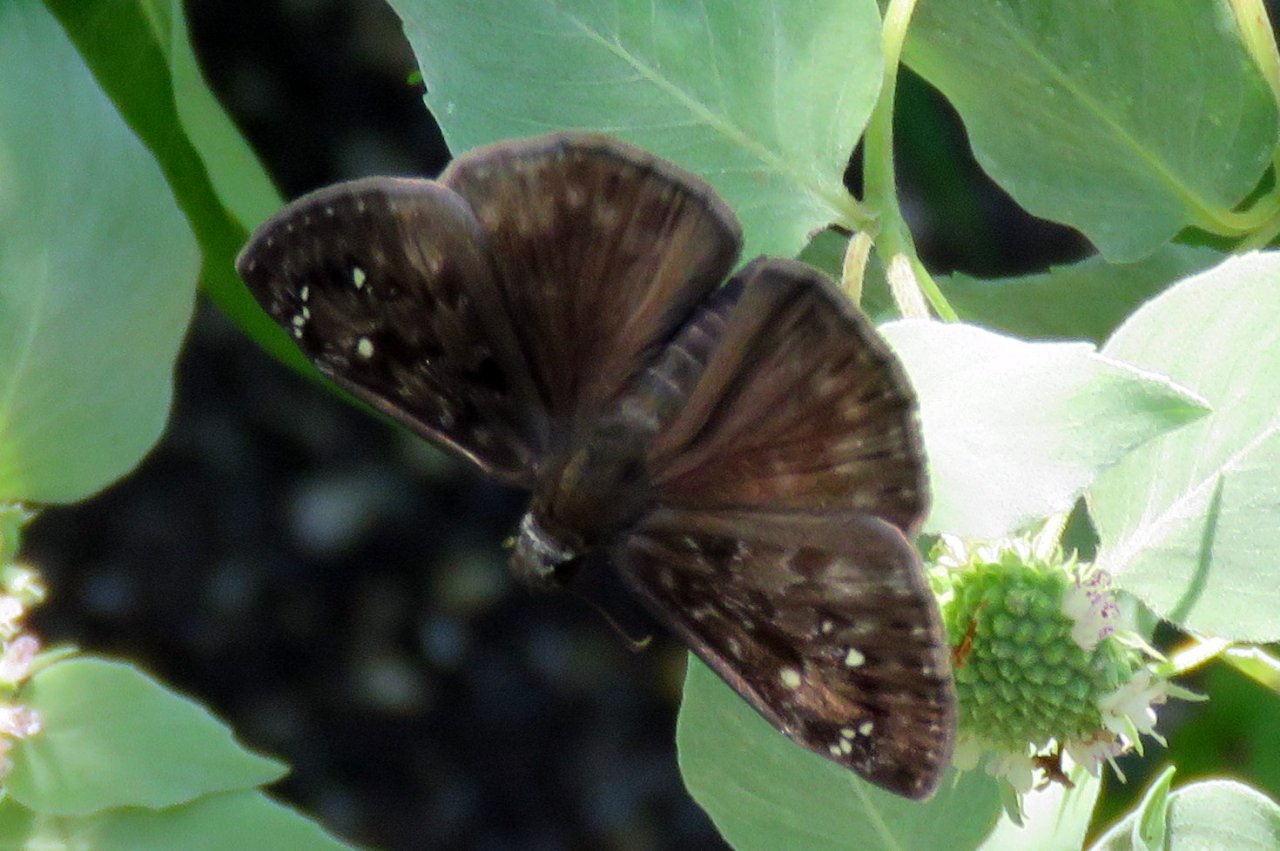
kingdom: Animalia
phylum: Arthropoda
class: Insecta
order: Lepidoptera
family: Hesperiidae
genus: Gesta
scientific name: Gesta
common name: Horace's Duskywing
